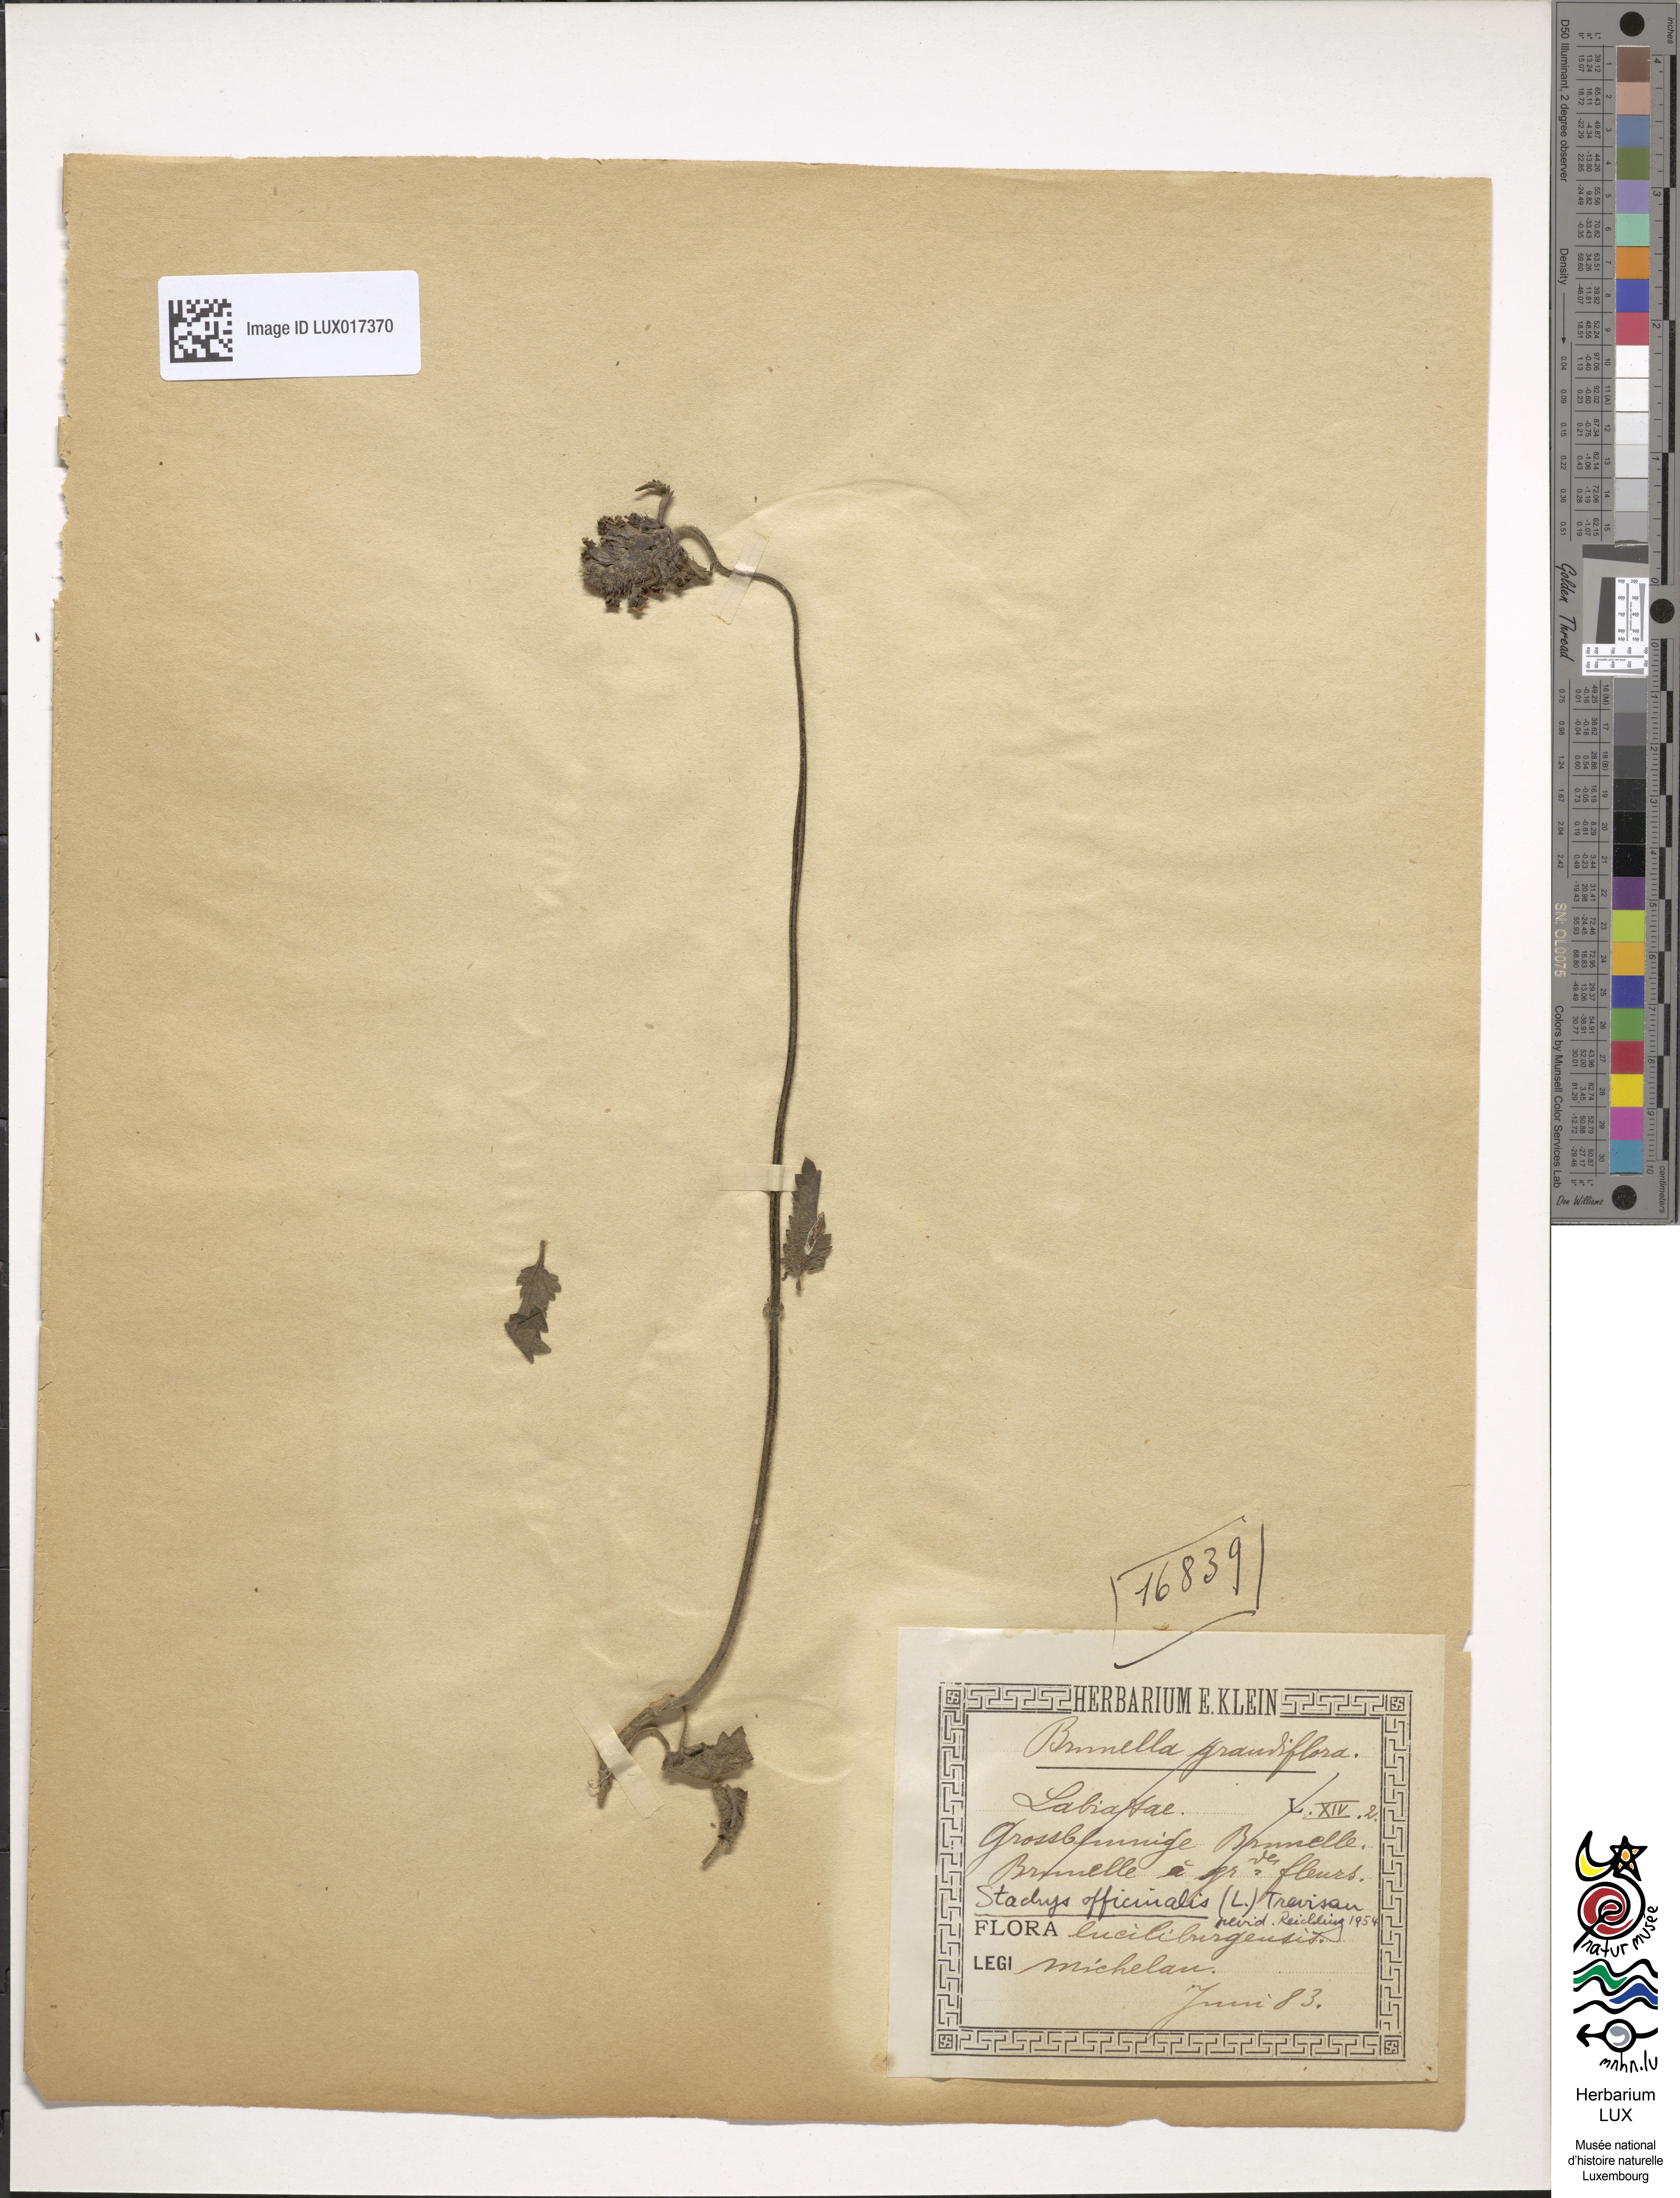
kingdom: Plantae
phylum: Tracheophyta
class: Magnoliopsida
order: Lamiales
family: Lamiaceae
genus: Betonica
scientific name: Betonica officinalis
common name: Bishop's-wort
